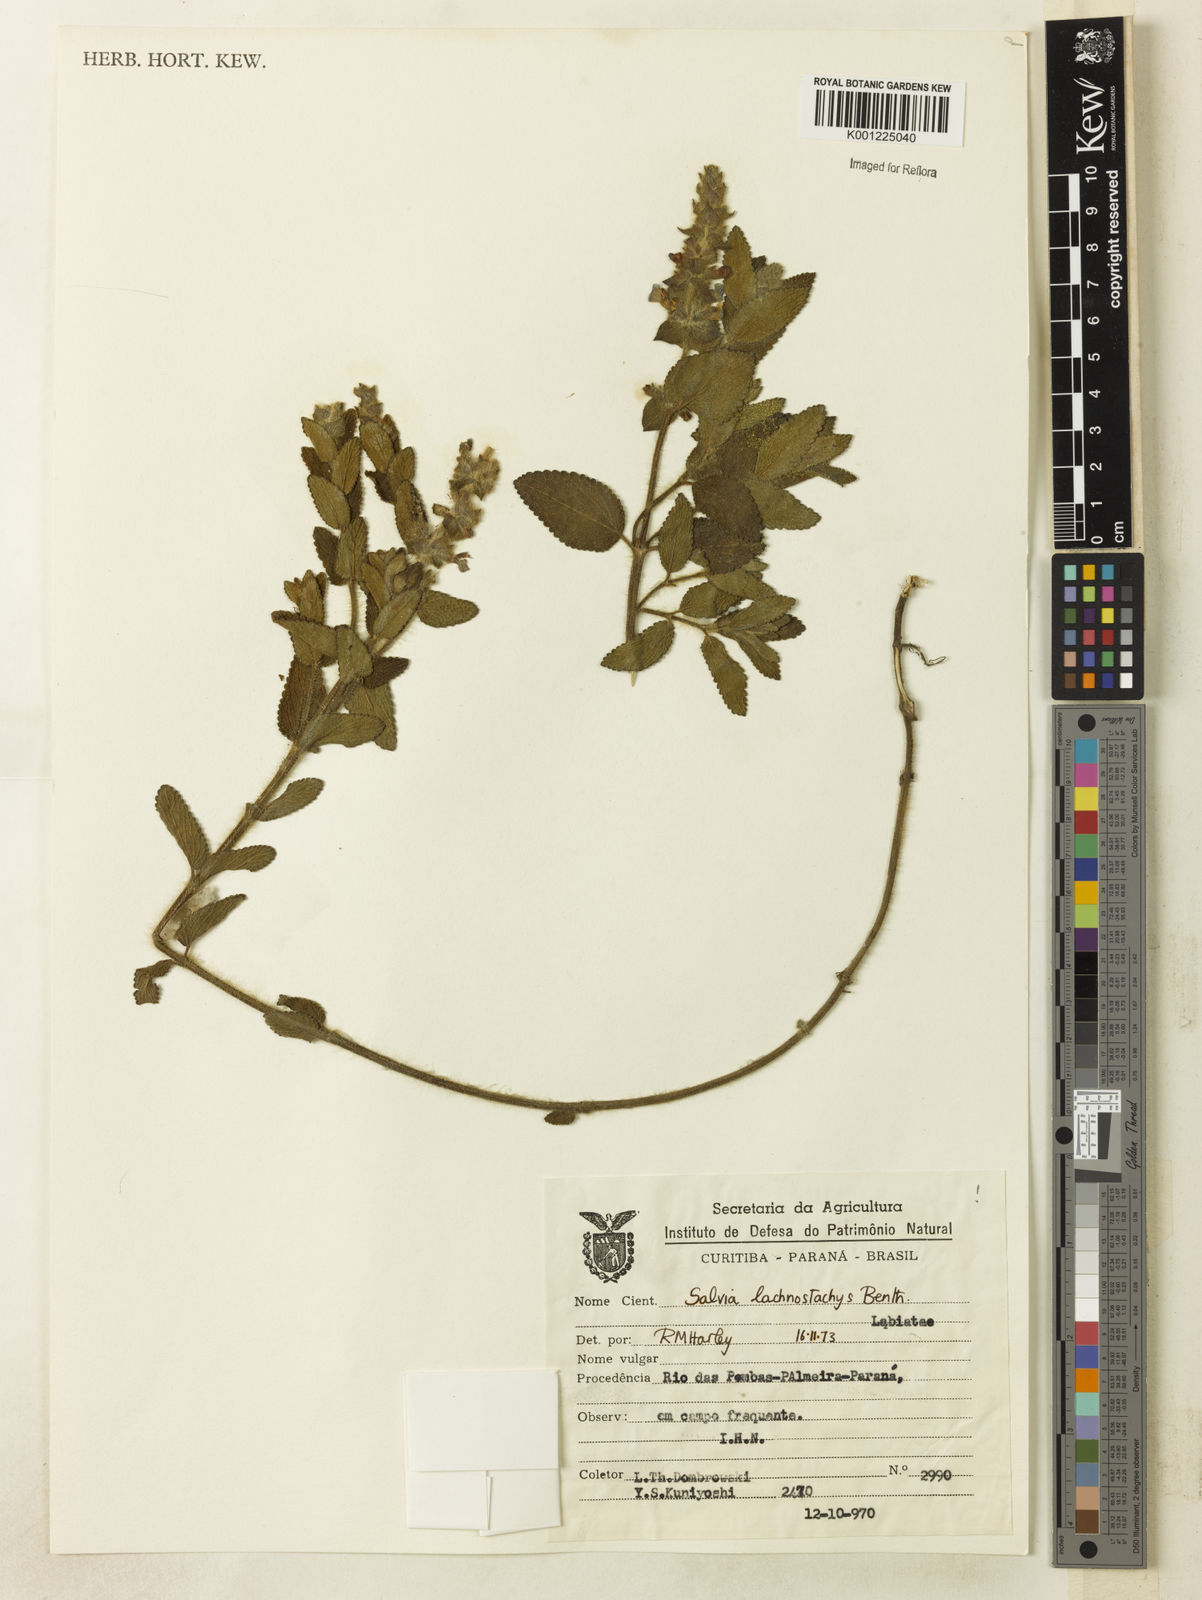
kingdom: Plantae
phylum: Tracheophyta
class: Magnoliopsida
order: Lamiales
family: Lamiaceae
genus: Salvia
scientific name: Salvia lachnostachys
